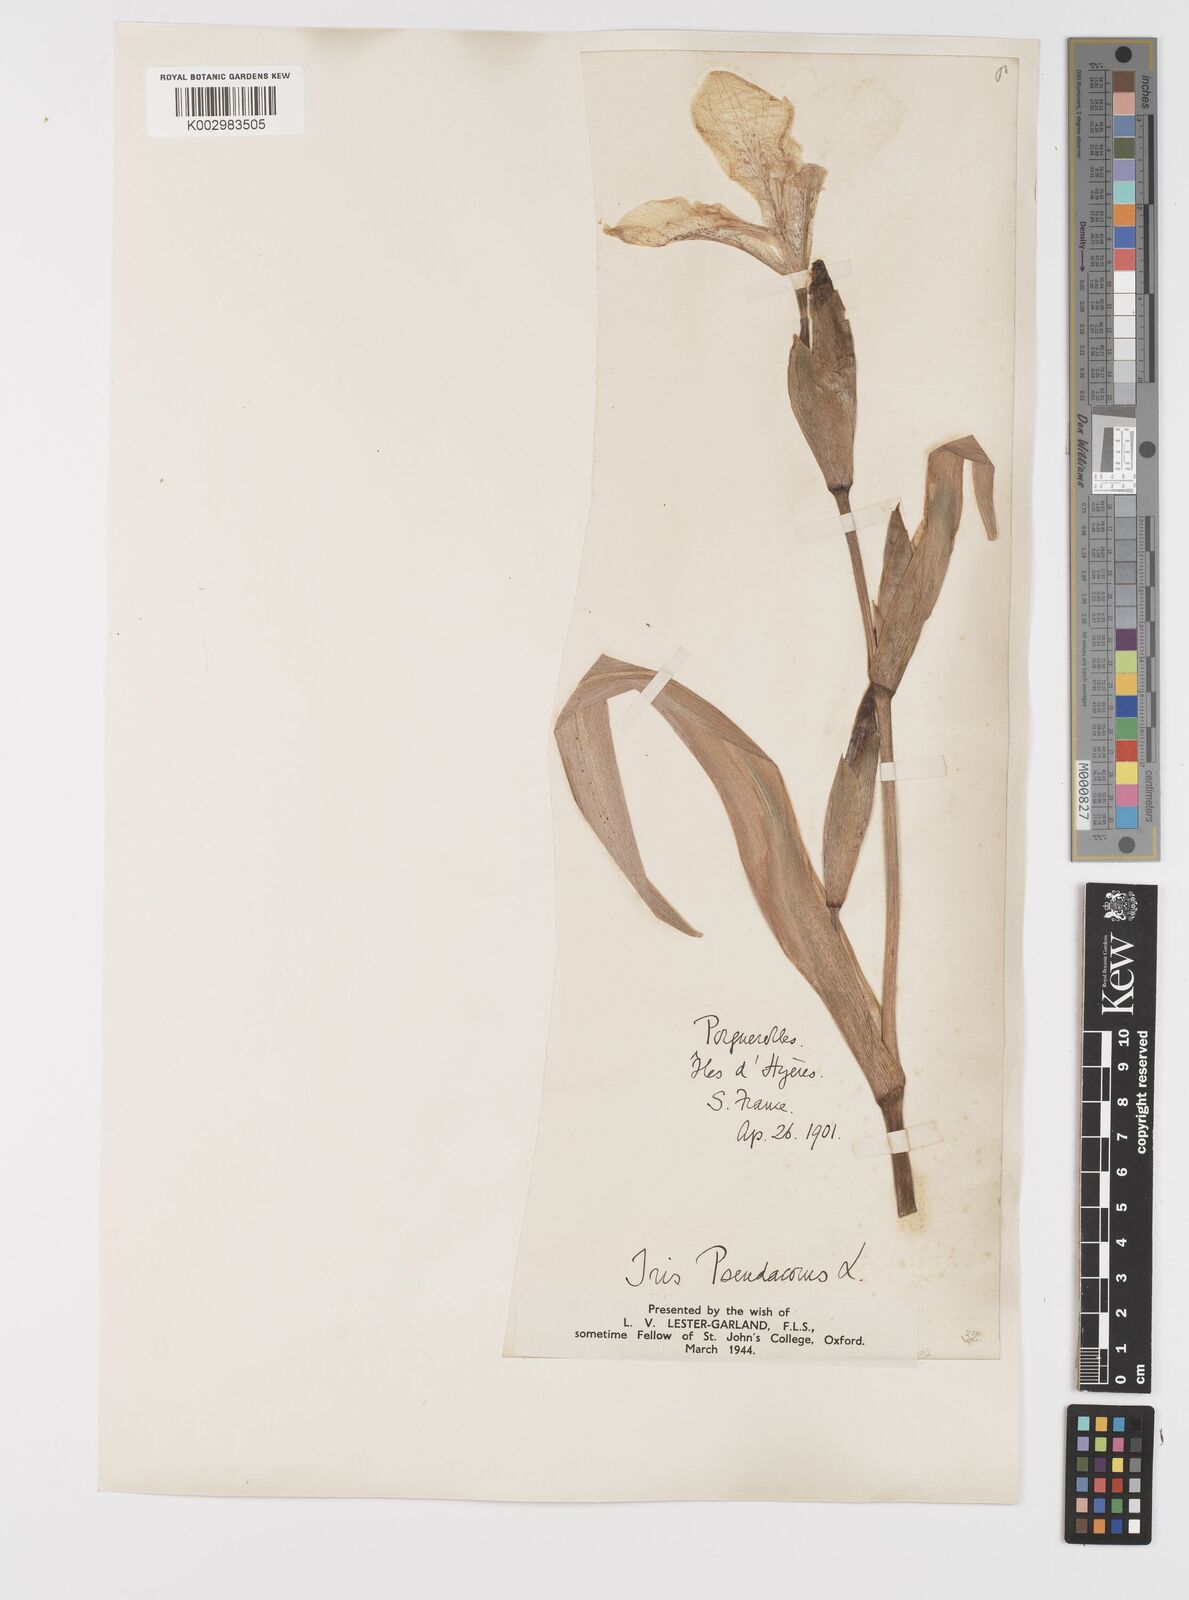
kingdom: Plantae
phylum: Tracheophyta
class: Liliopsida
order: Asparagales
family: Iridaceae
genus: Iris
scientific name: Iris pseudacorus
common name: Yellow flag
